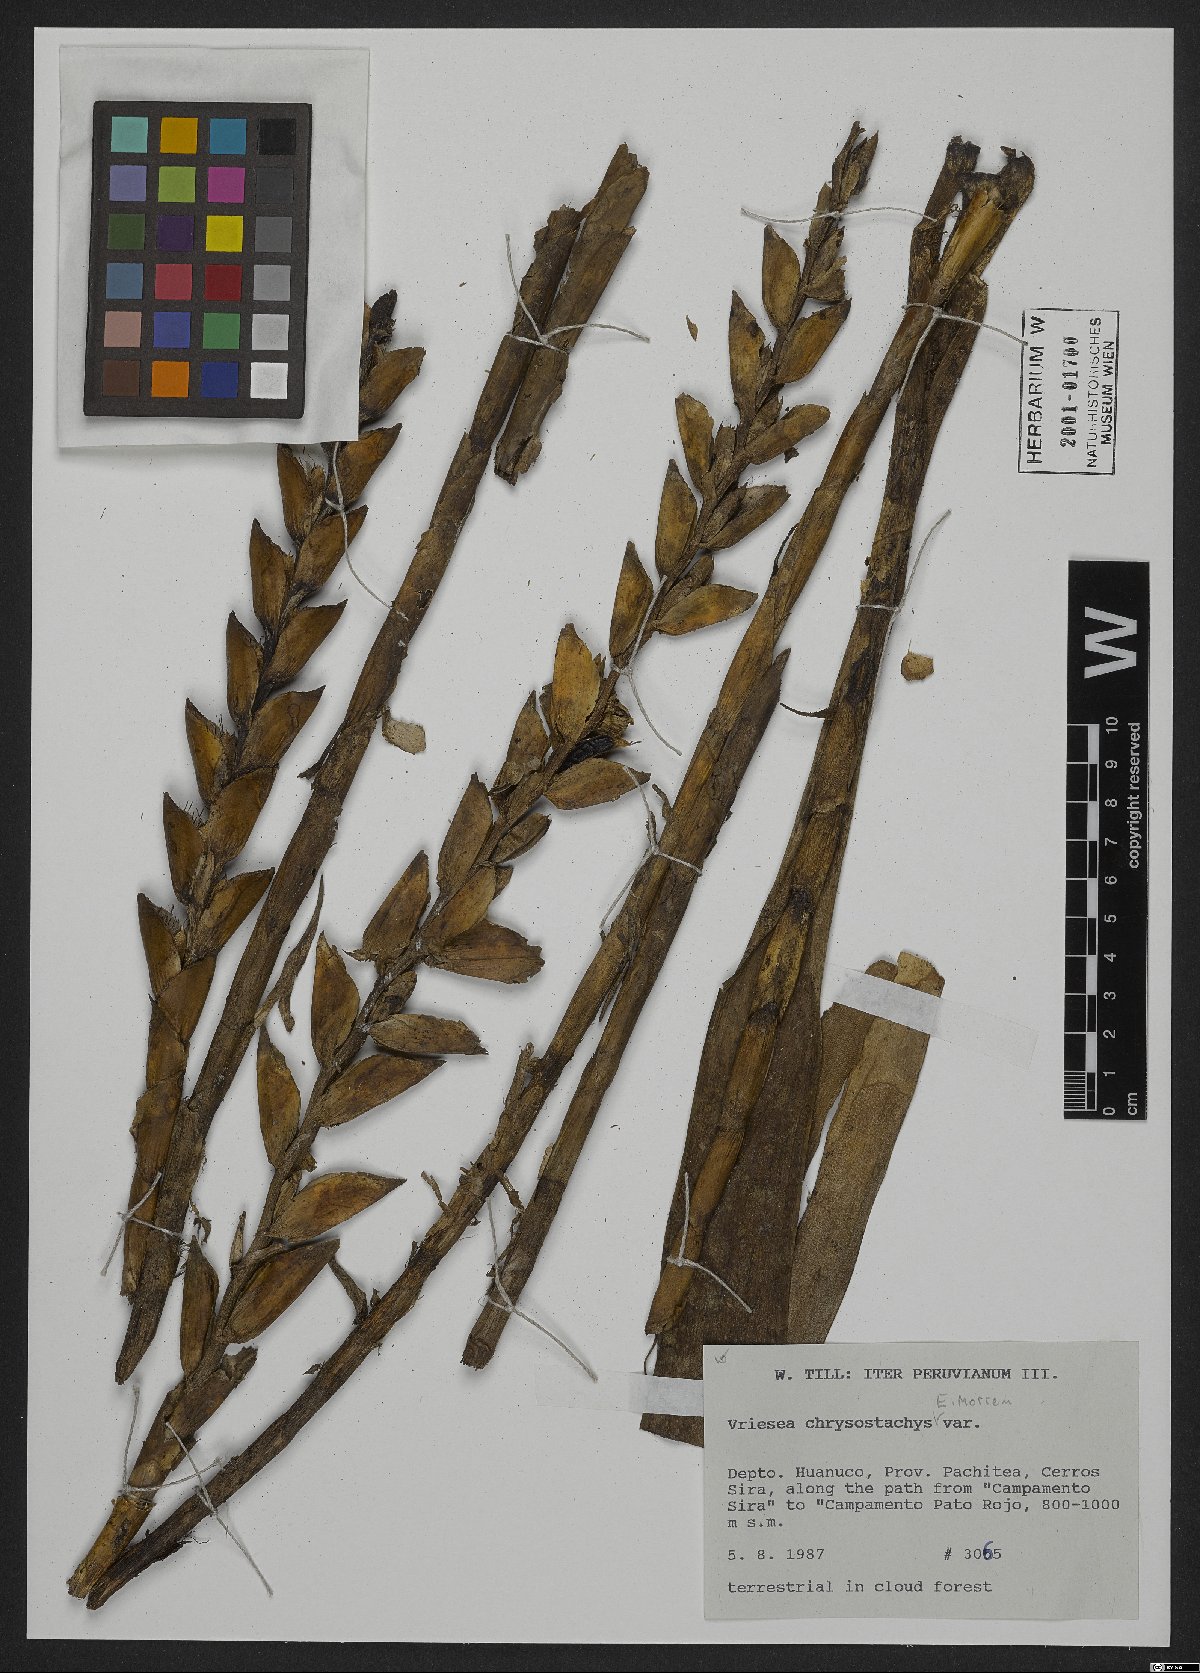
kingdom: Plantae
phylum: Tracheophyta
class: Liliopsida
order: Poales
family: Bromeliaceae
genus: Goudaea
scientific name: Goudaea chrysostachys
